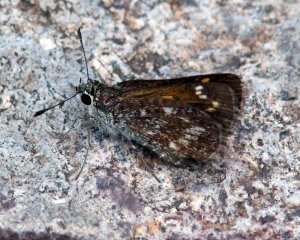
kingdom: Animalia
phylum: Arthropoda
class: Insecta
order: Lepidoptera
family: Hesperiidae
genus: Mastor
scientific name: Mastor cassus
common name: Cassus Roadside-Skipper
